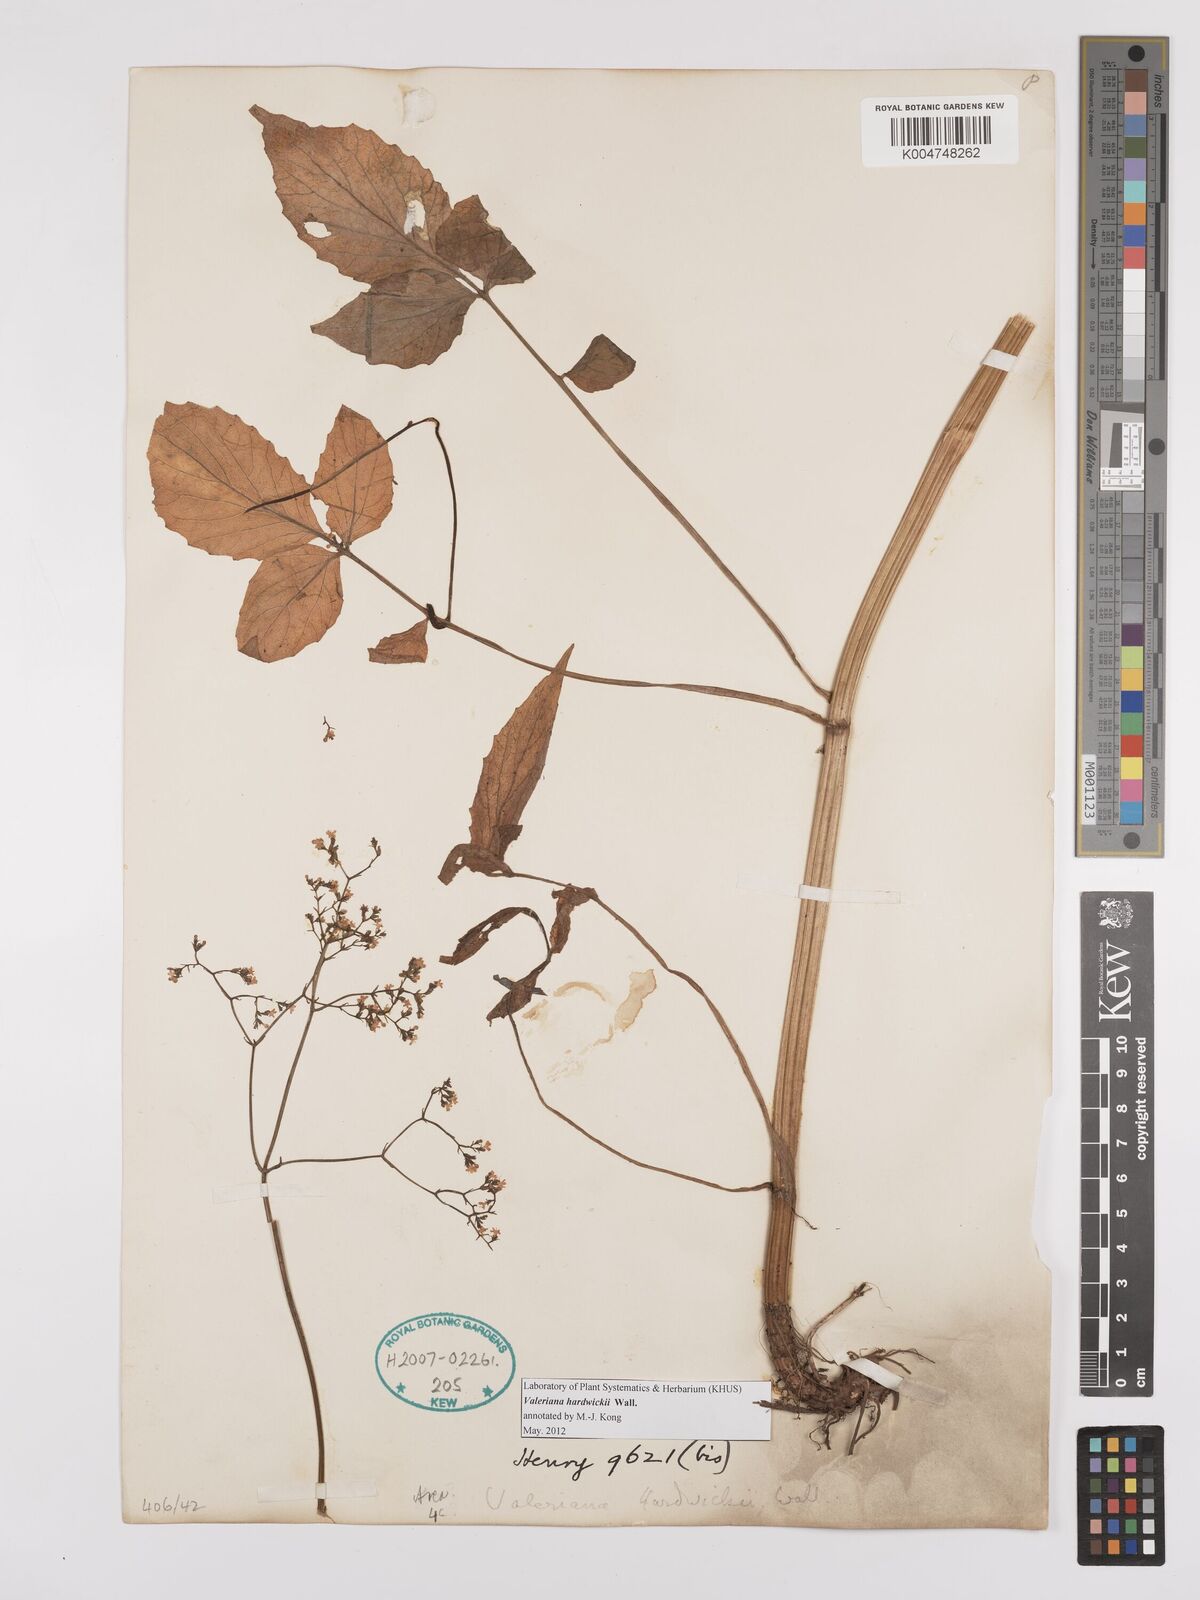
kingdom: Plantae
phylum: Tracheophyta
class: Magnoliopsida
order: Dipsacales
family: Caprifoliaceae
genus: Valeriana
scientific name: Valeriana hardwickei
